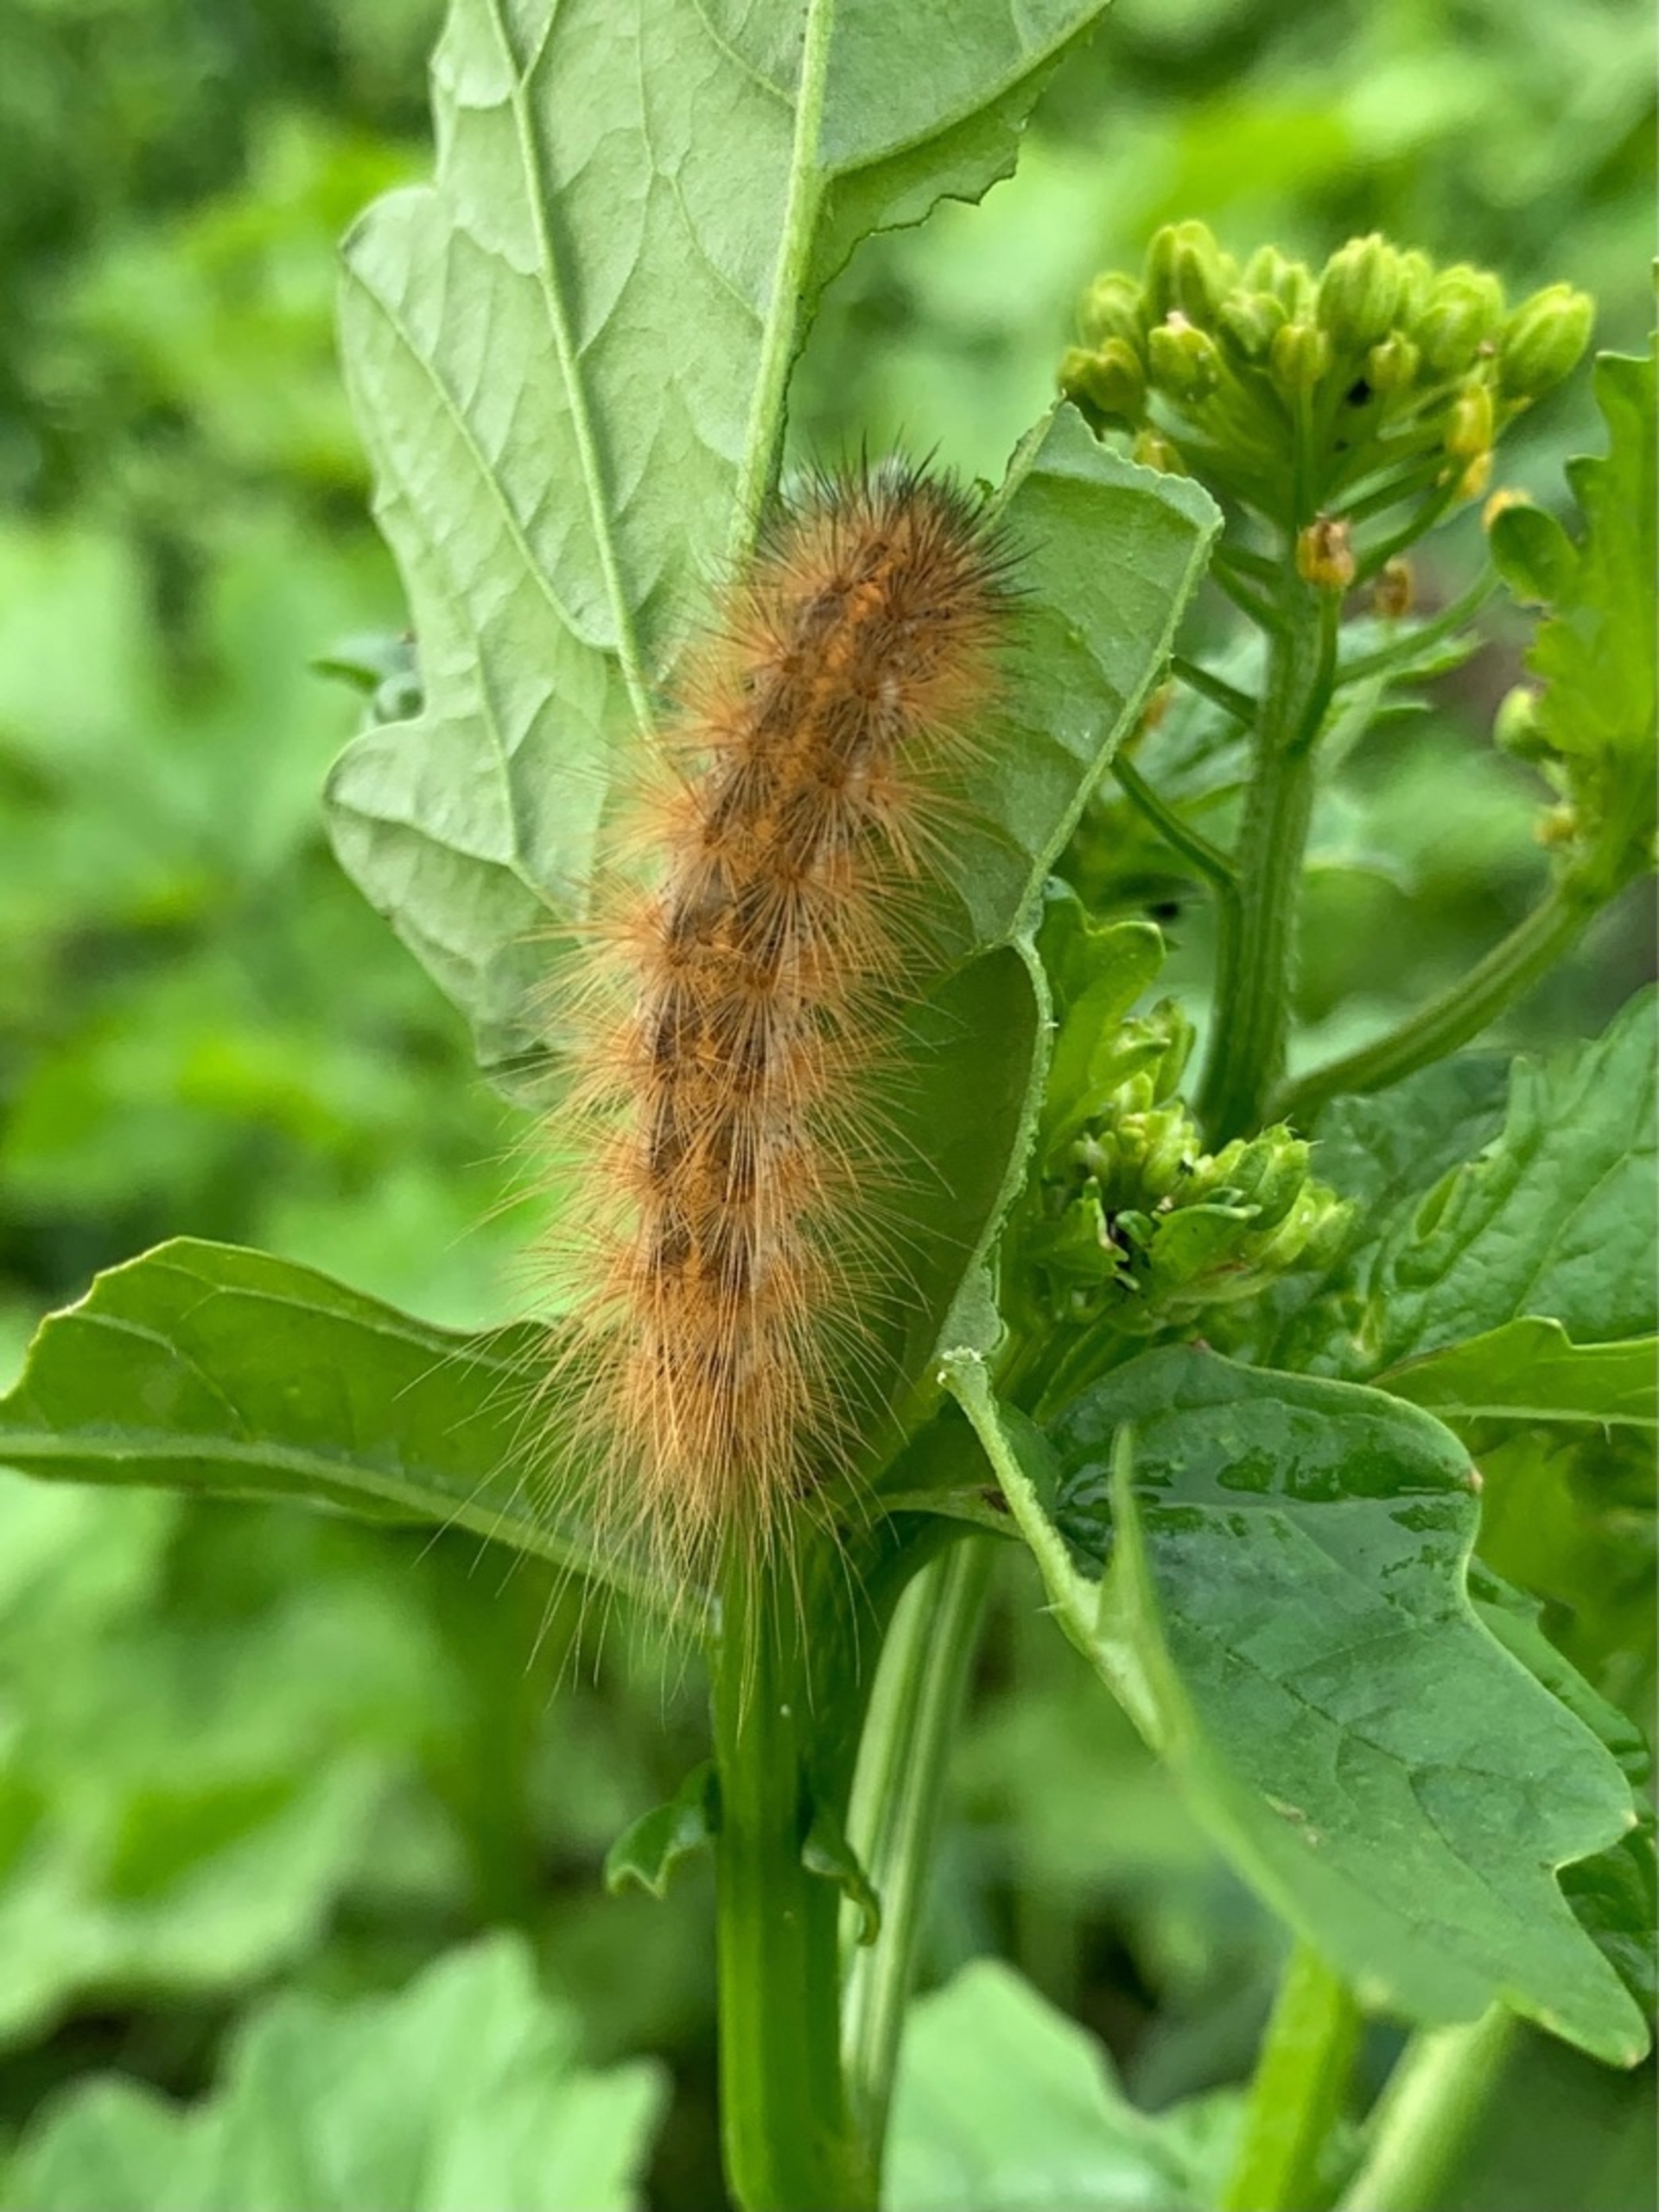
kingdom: Animalia
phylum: Arthropoda
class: Insecta
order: Lepidoptera
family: Erebidae
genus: Phragmatobia
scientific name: Phragmatobia fuliginosa
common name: Kanelbjørn
